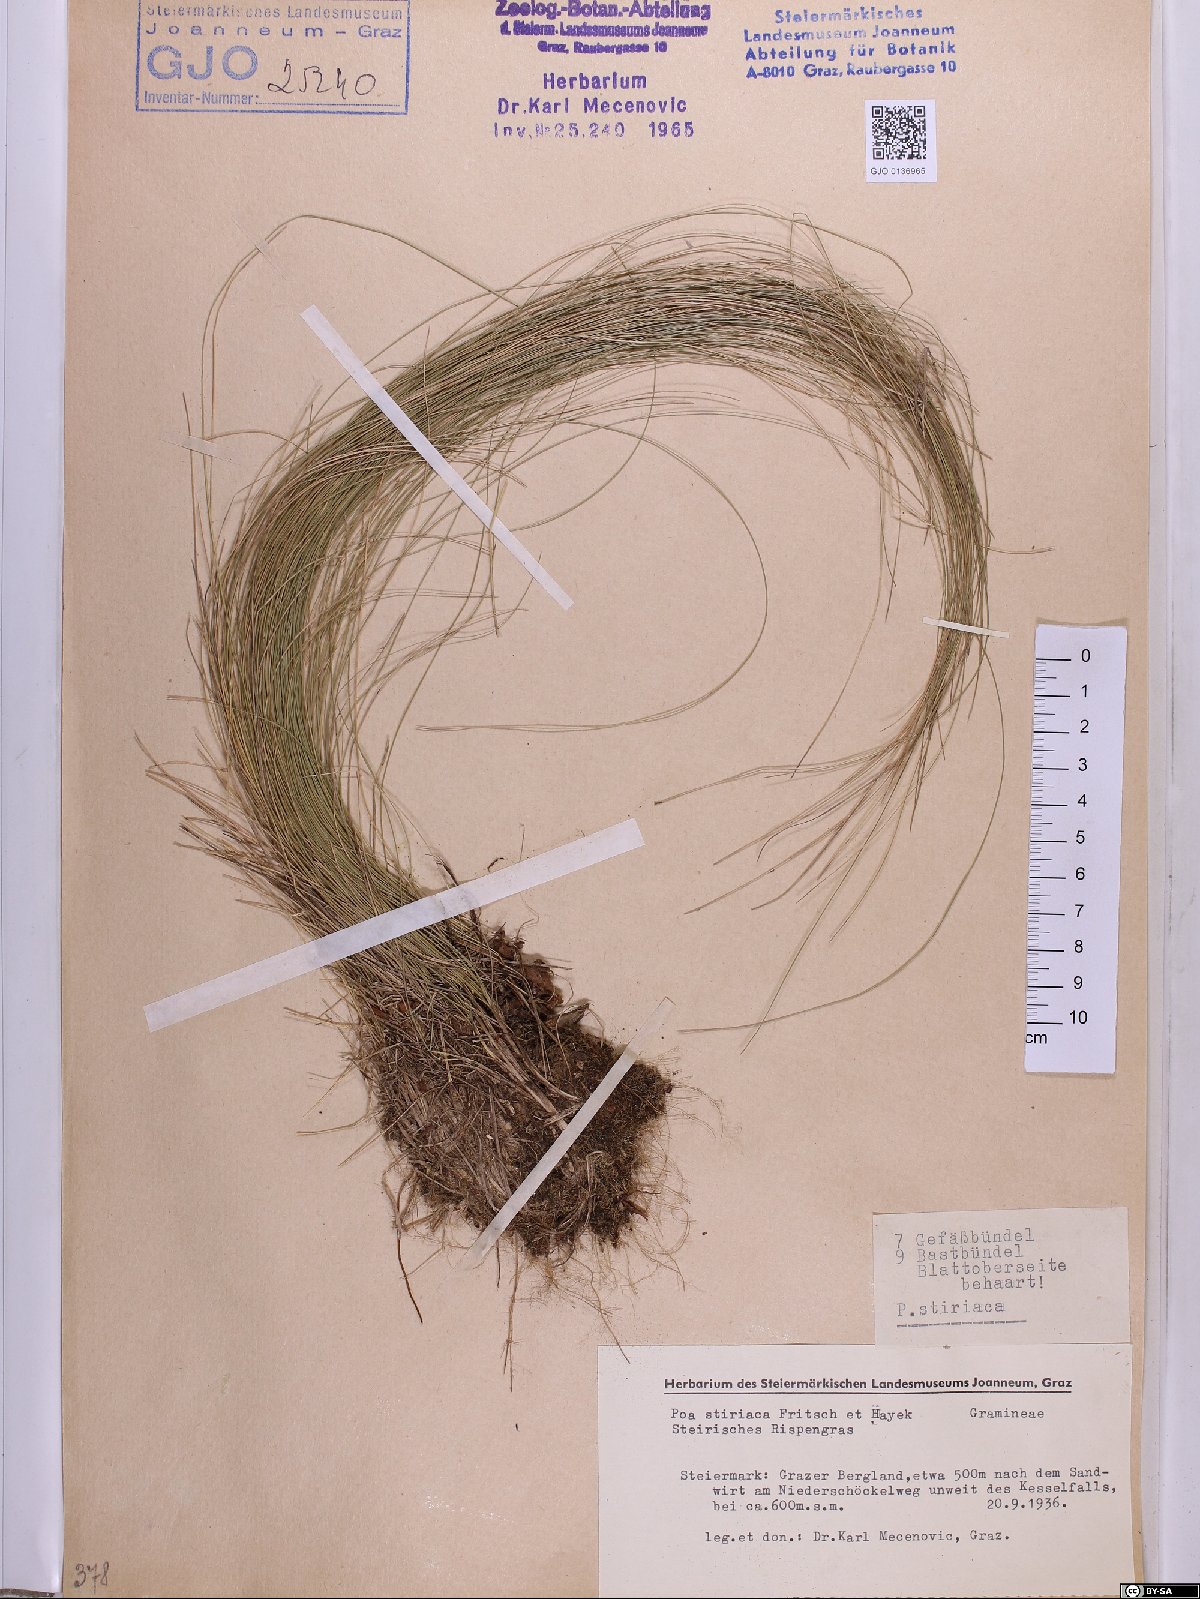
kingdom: Plantae
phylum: Tracheophyta
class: Liliopsida
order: Poales
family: Poaceae
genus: Poa
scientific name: Poa stiriaca
